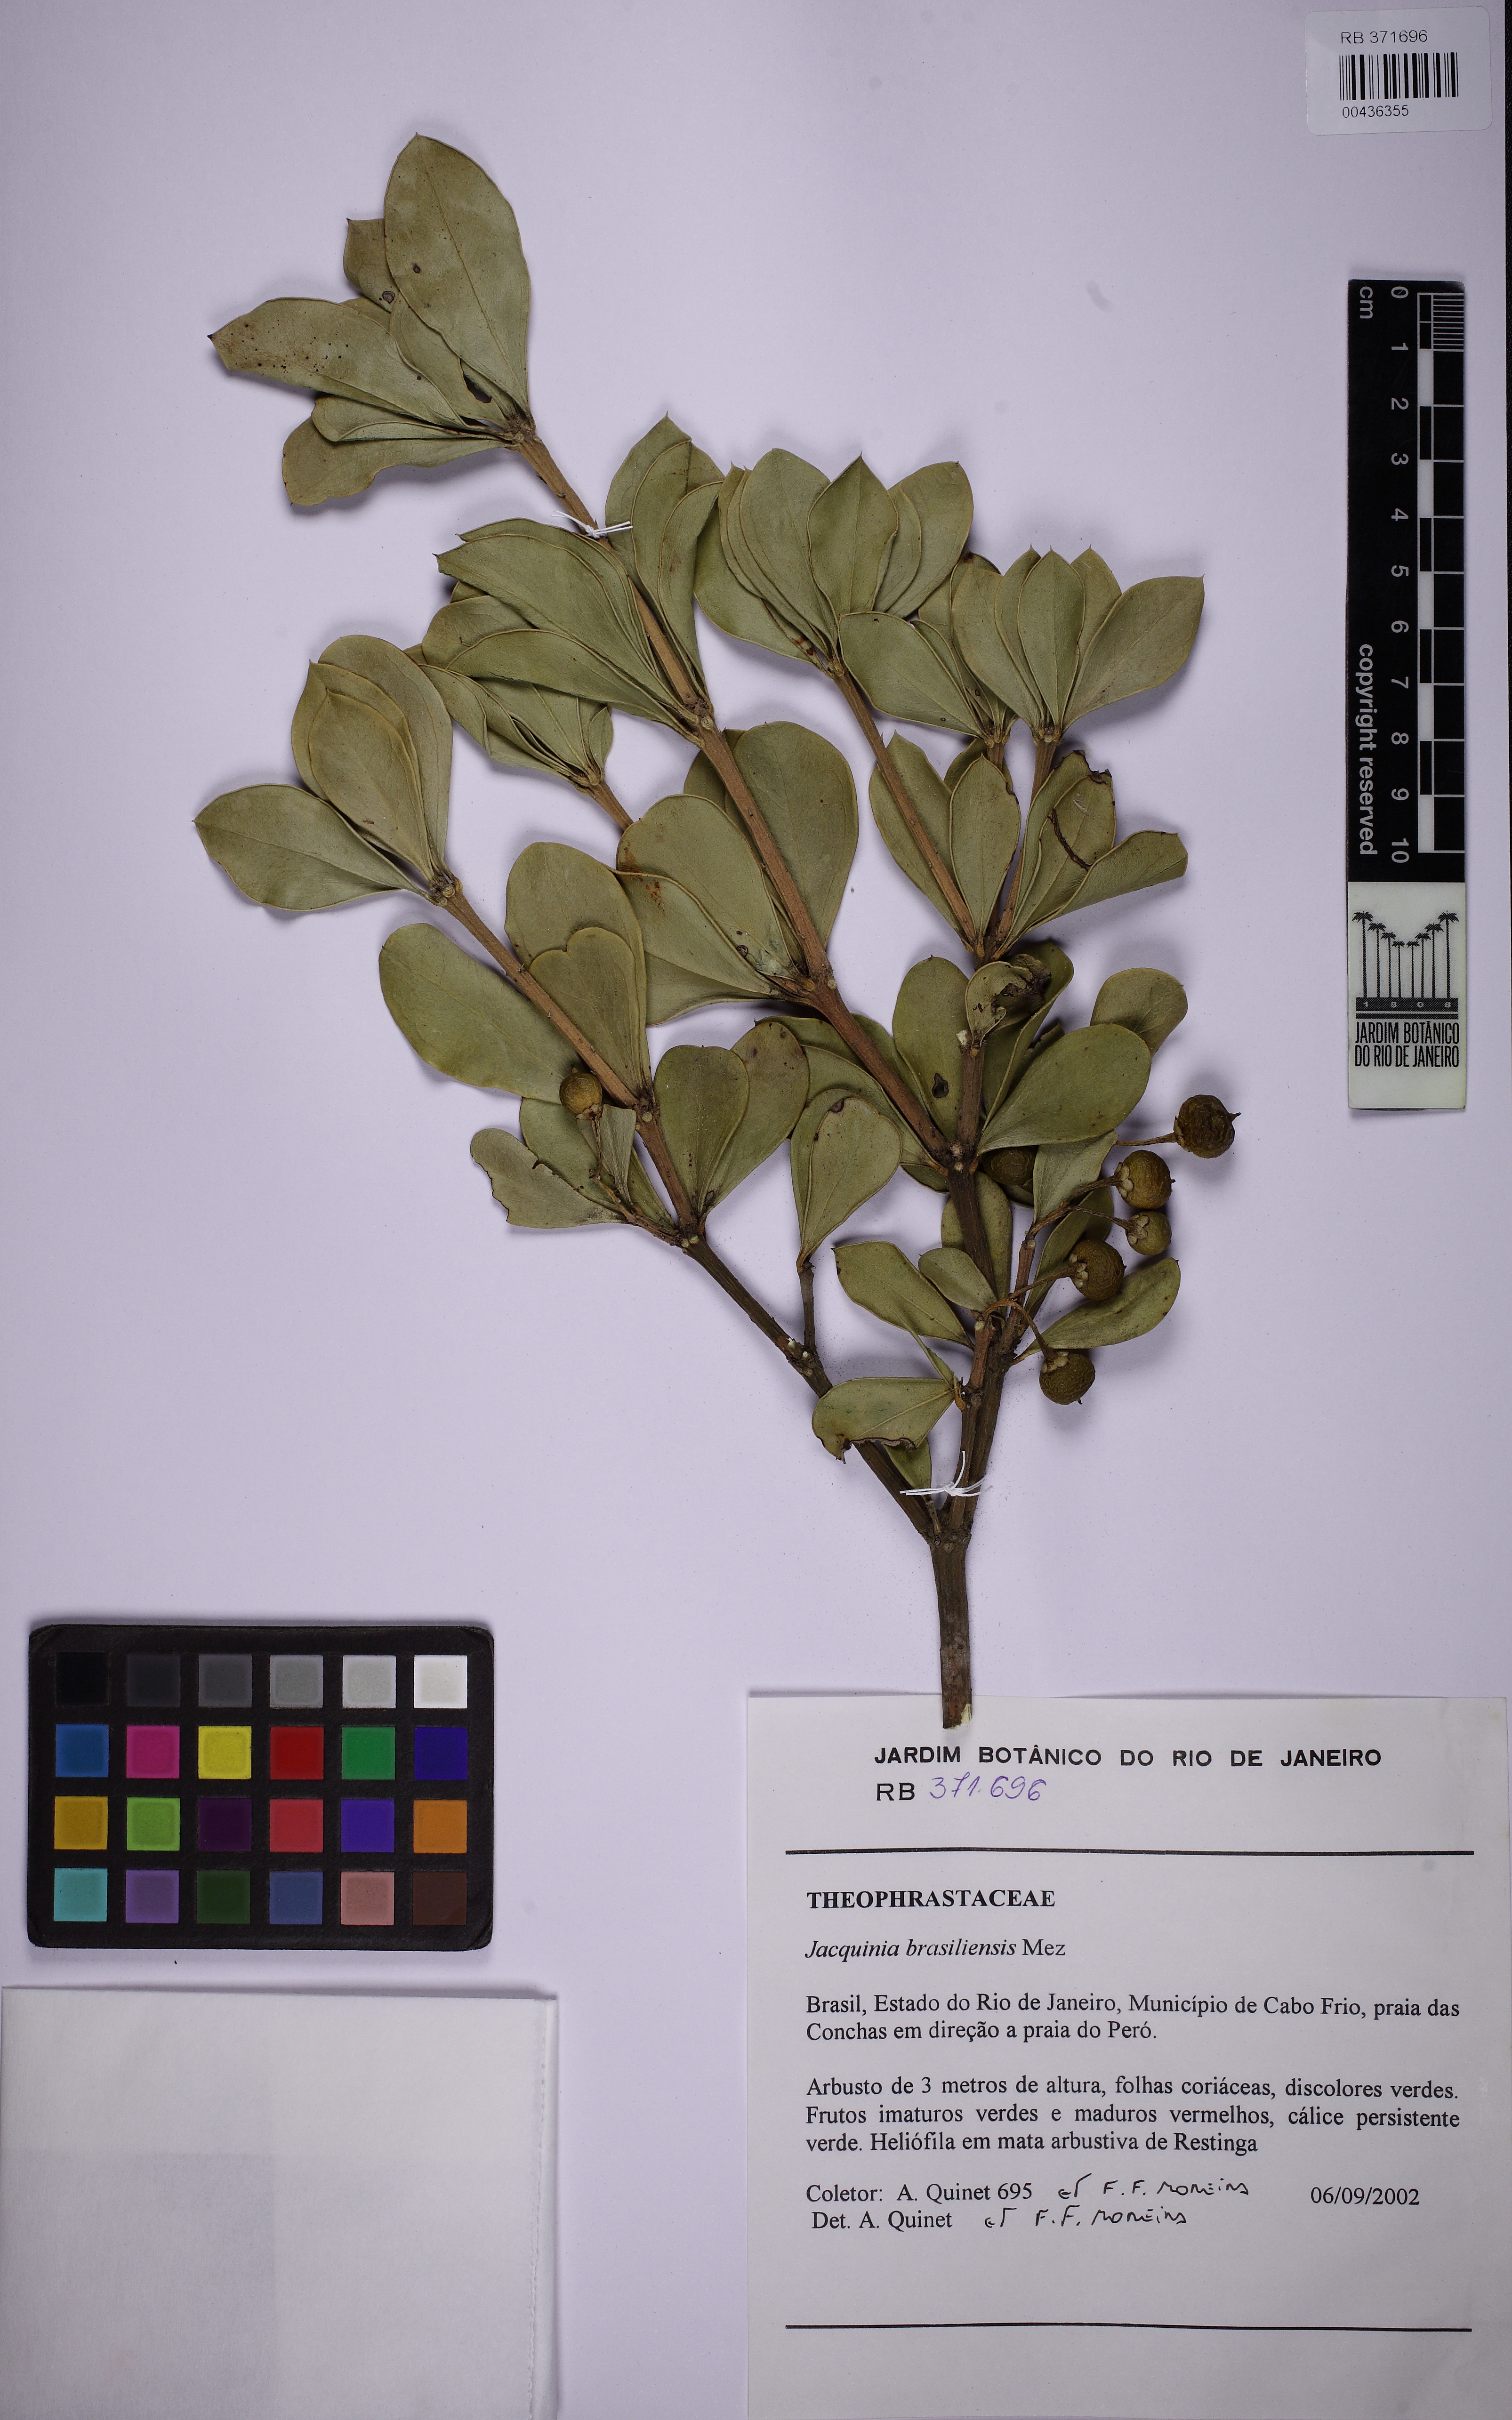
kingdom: Plantae
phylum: Tracheophyta
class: Magnoliopsida
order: Ericales
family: Primulaceae
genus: Jacquinia
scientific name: Jacquinia armillaris
